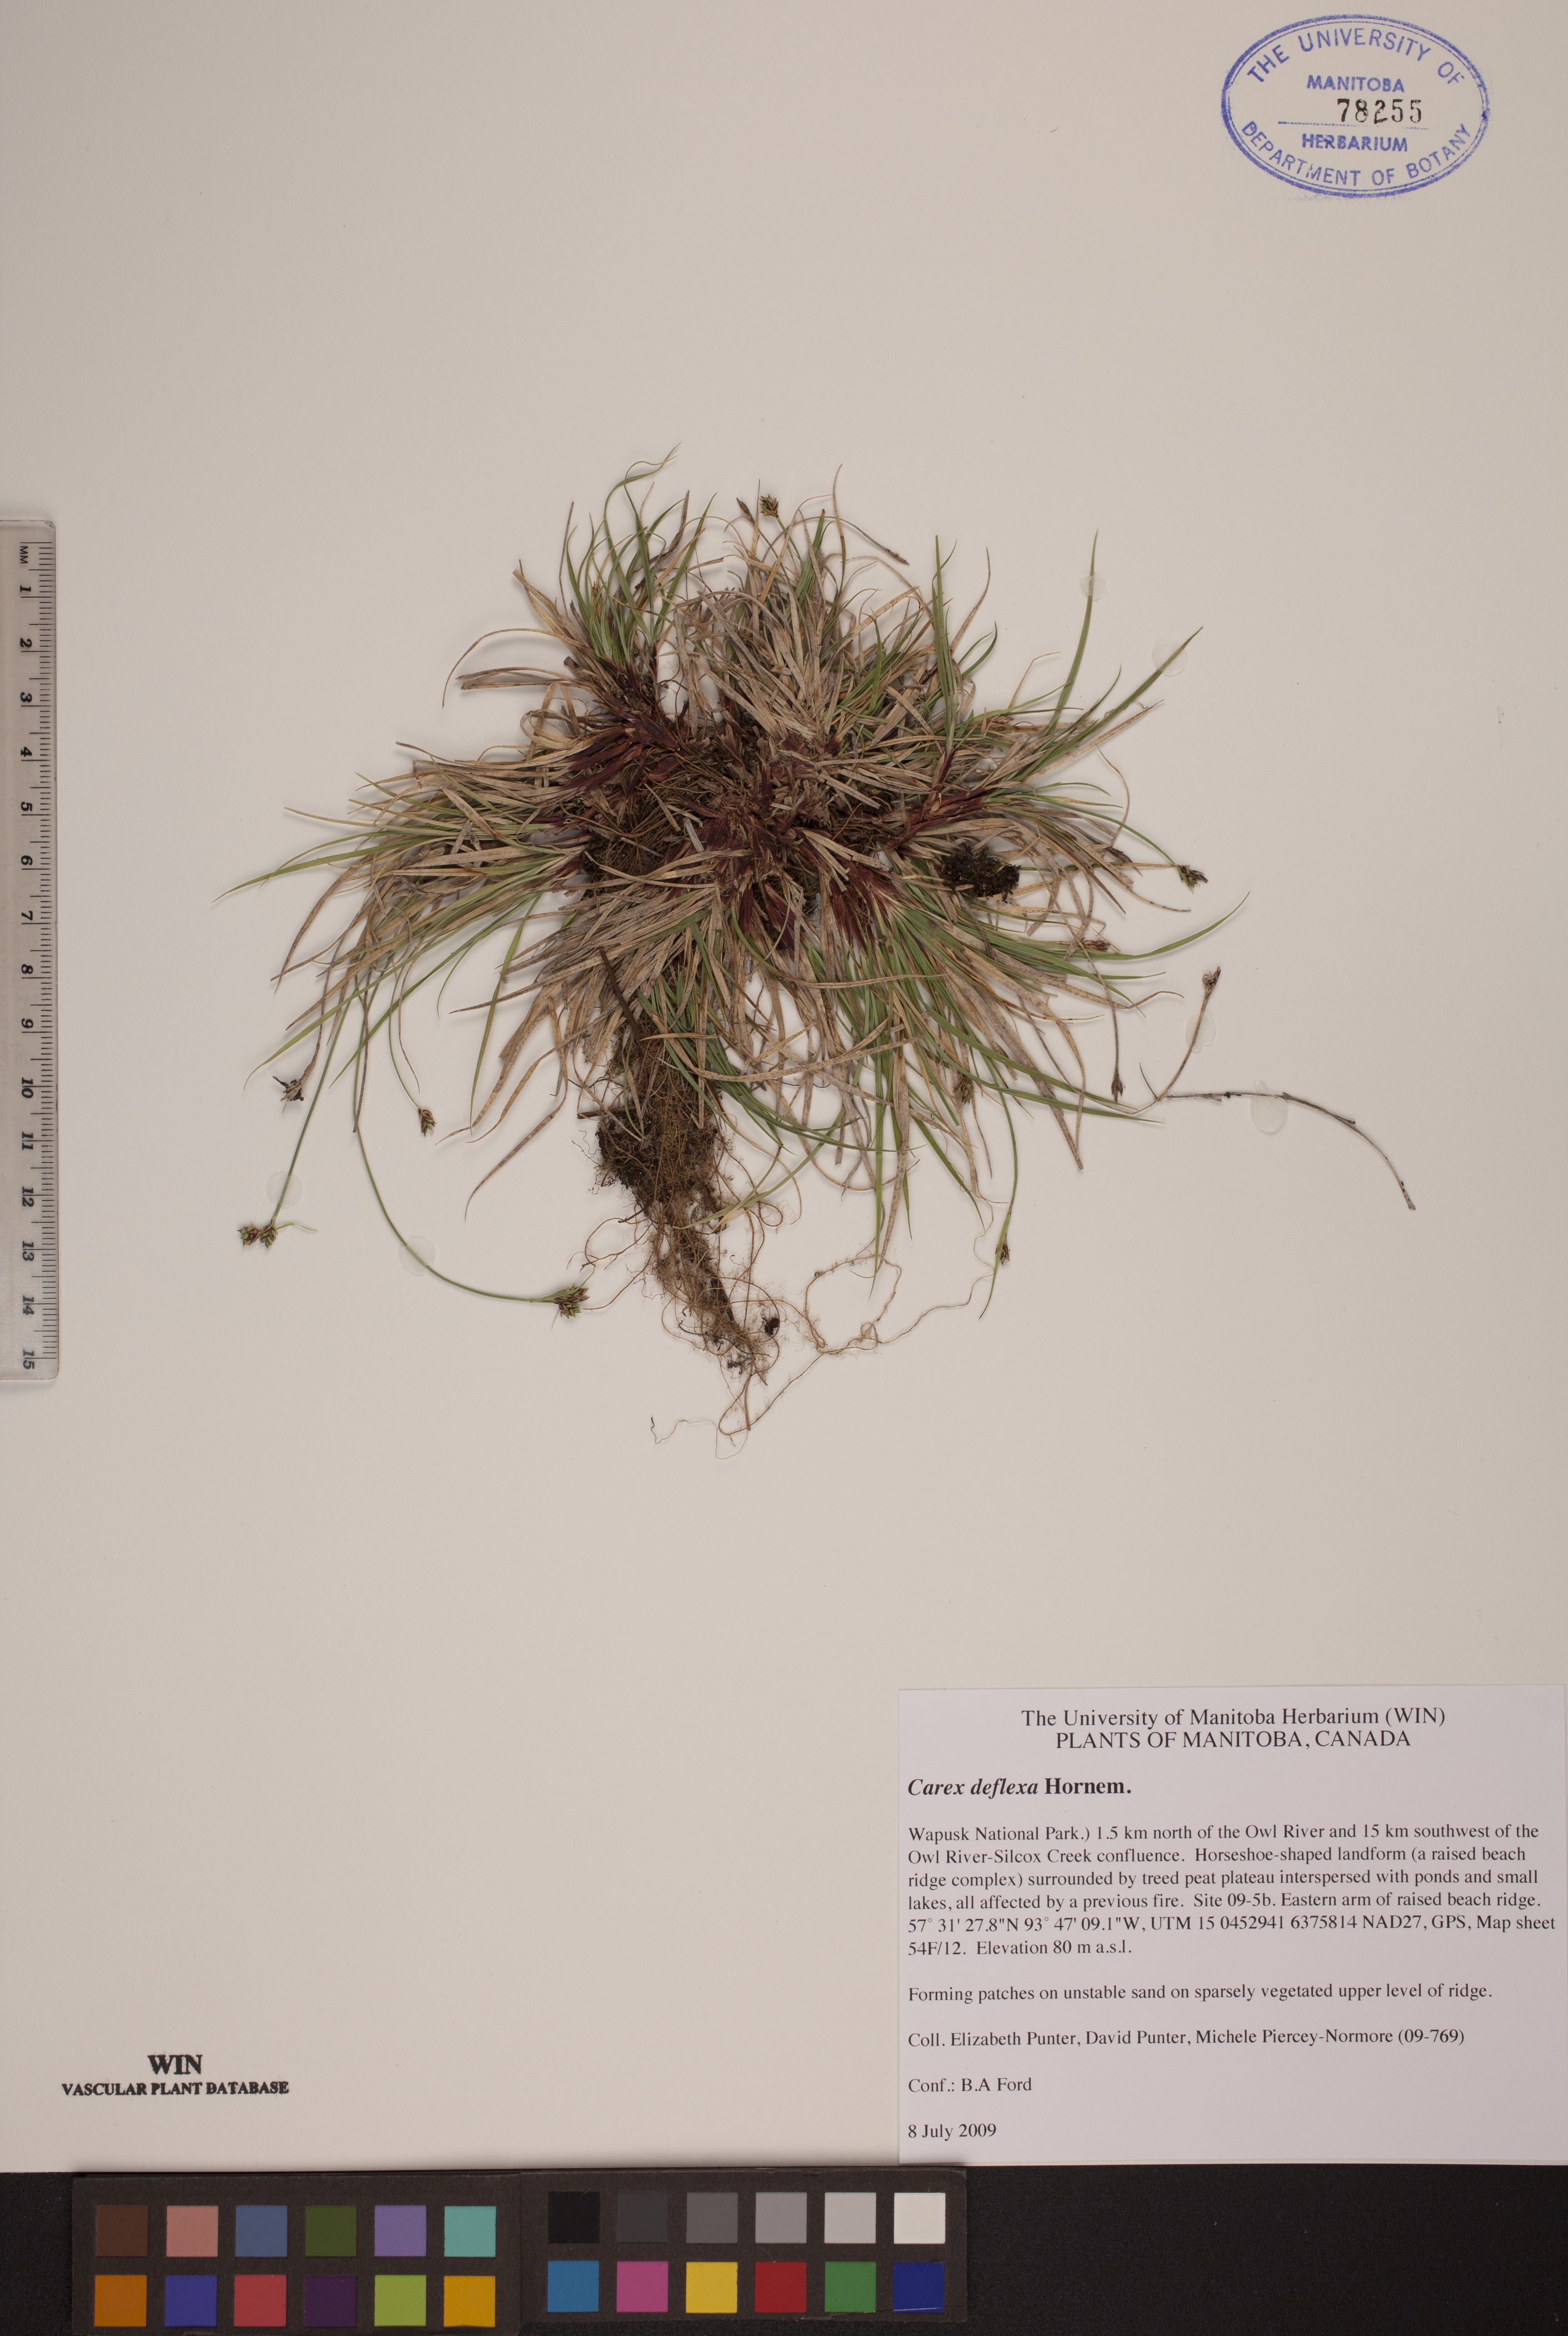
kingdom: Plantae
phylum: Tracheophyta
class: Liliopsida
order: Poales
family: Cyperaceae
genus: Carex
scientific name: Carex deflexa
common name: Bent northern sedge
